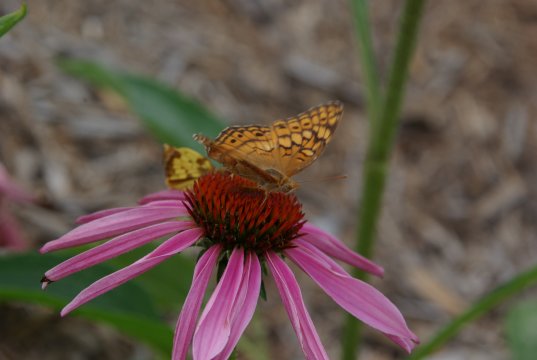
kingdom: Animalia
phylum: Arthropoda
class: Insecta
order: Lepidoptera
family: Nymphalidae
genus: Euptoieta
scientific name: Euptoieta claudia
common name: Variegated Fritillary
